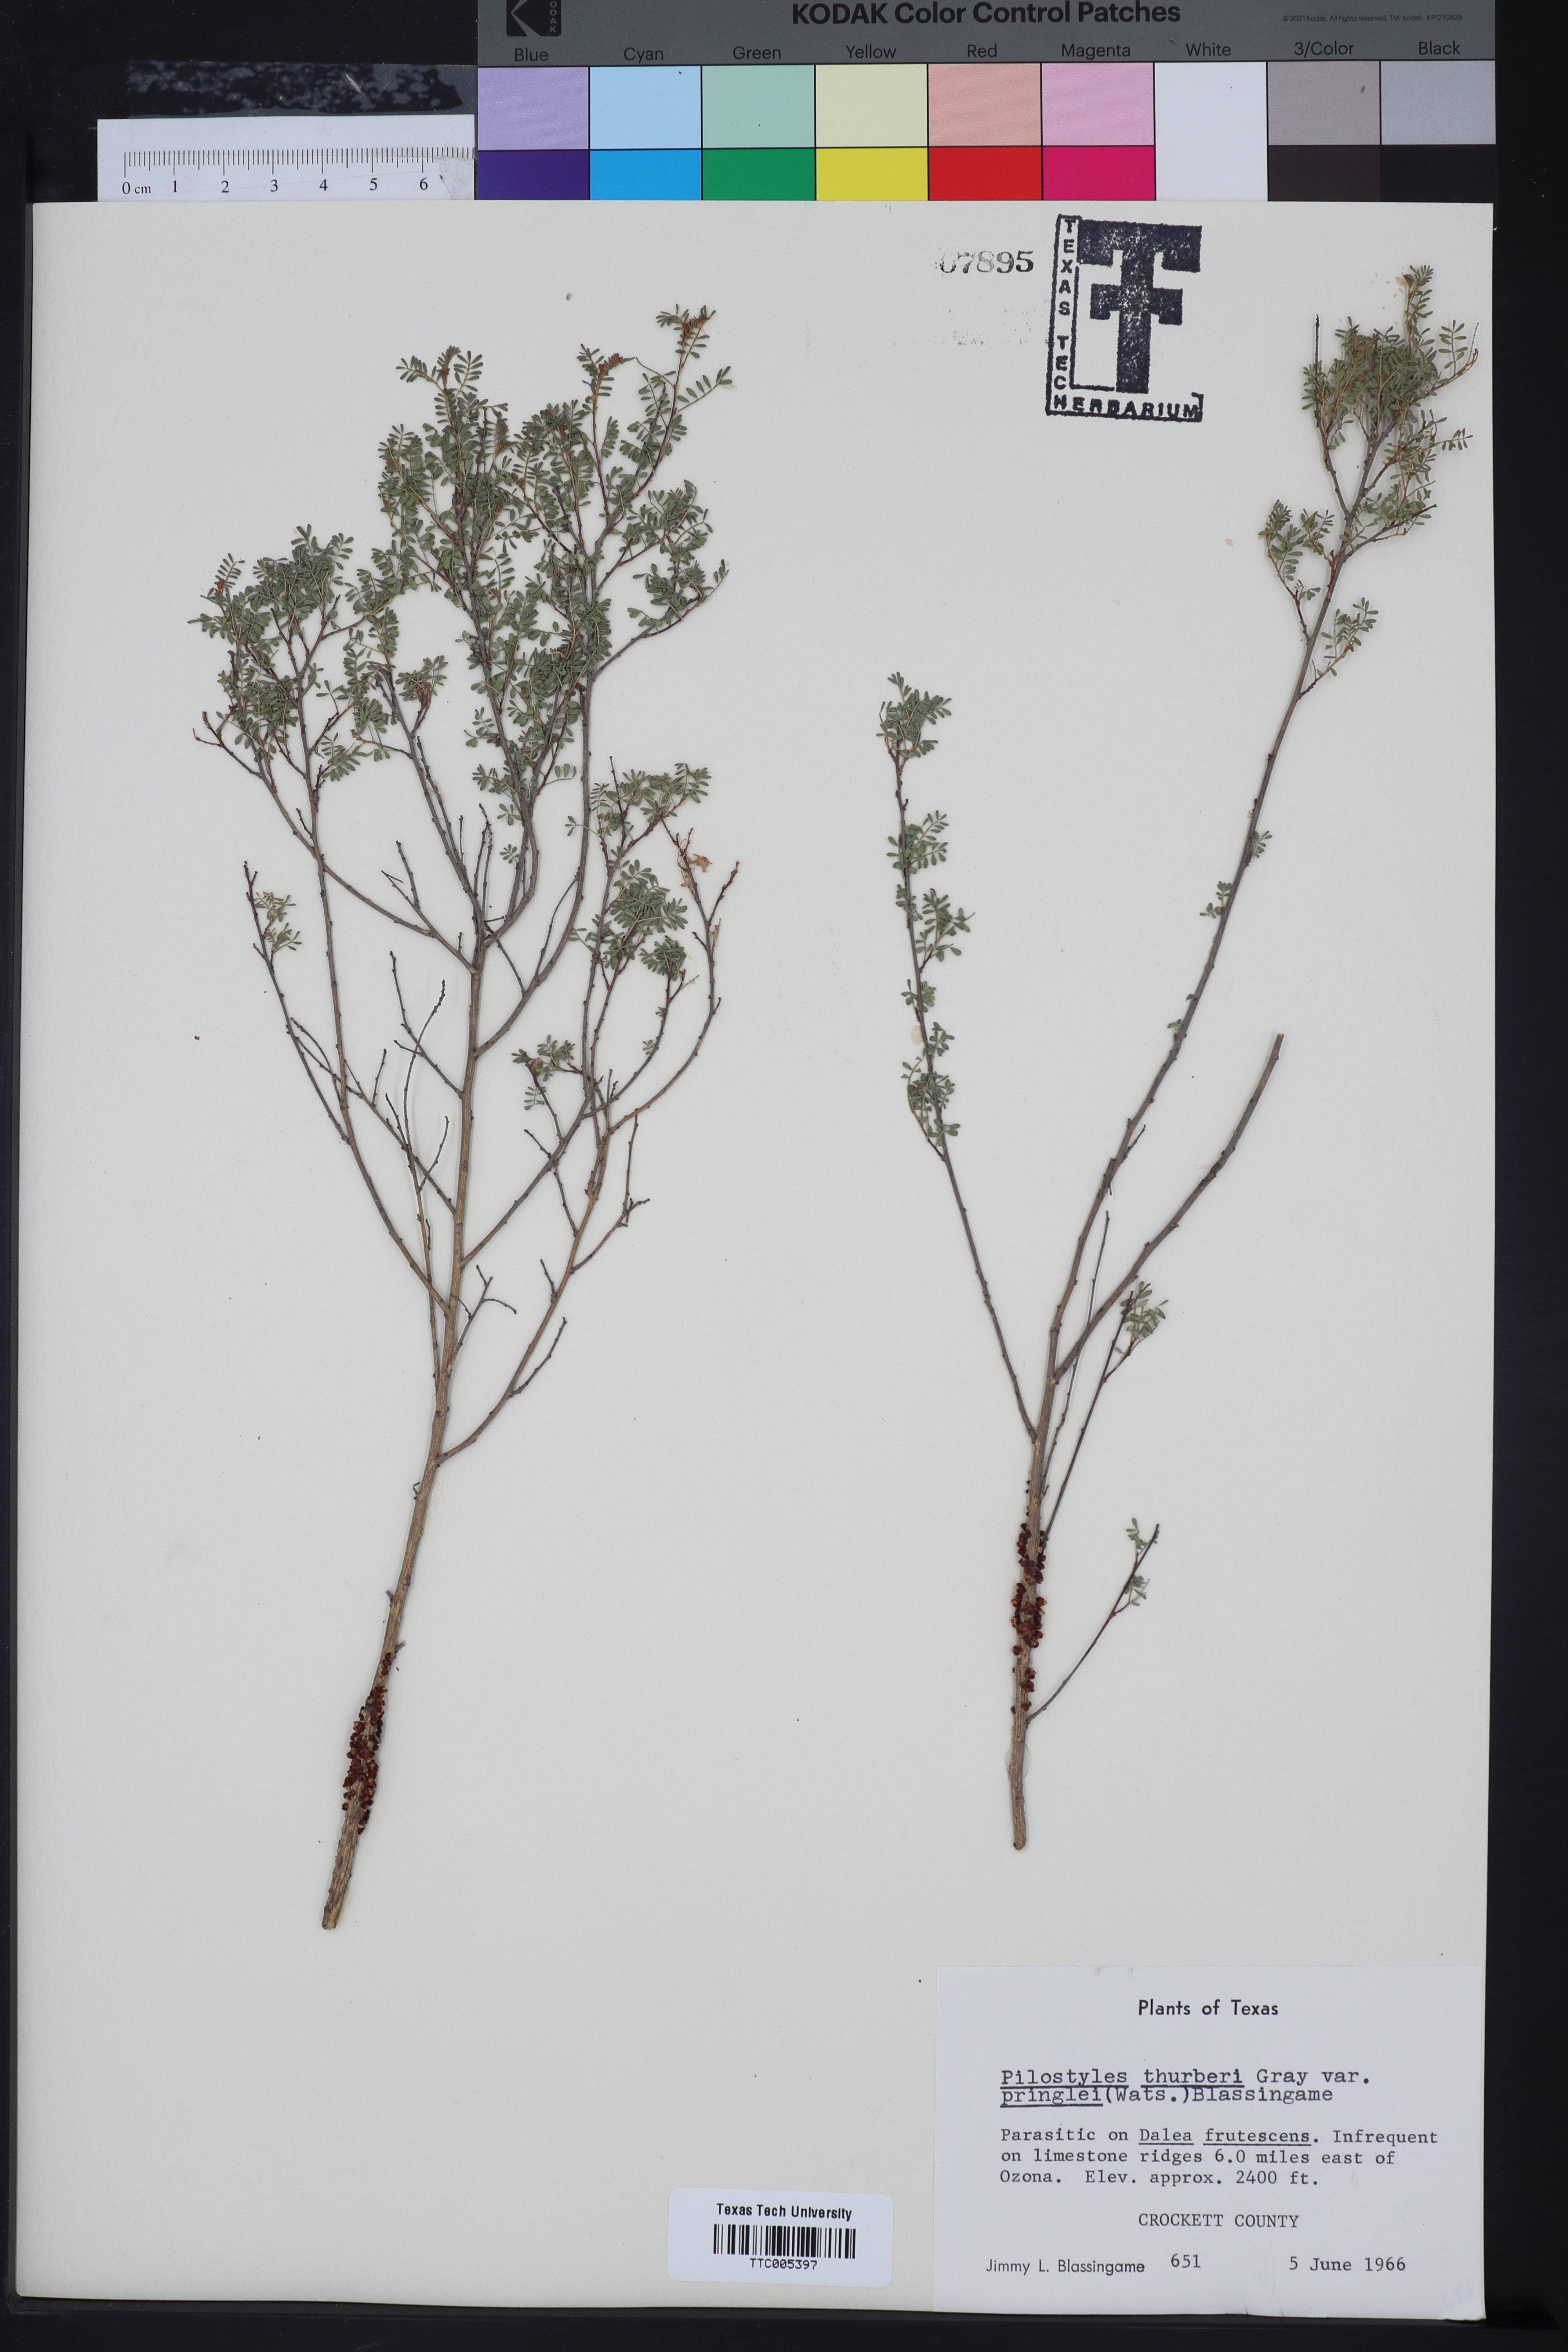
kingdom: Plantae
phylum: Tracheophyta
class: Magnoliopsida
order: Cucurbitales
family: Apodanthaceae
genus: Pilostyles
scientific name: Pilostyles thurberi
